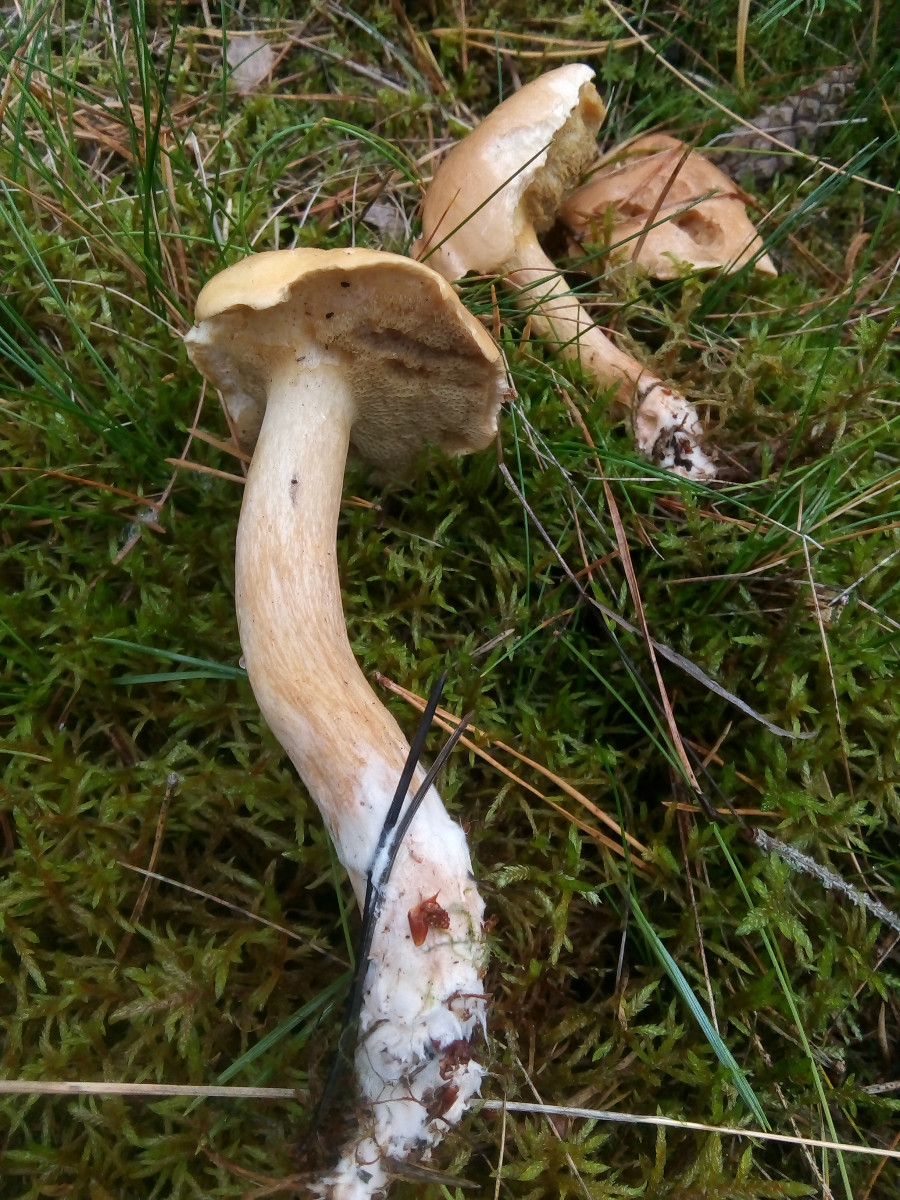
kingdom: Fungi
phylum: Basidiomycota
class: Agaricomycetes
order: Boletales
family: Suillaceae
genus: Suillus
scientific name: Suillus bovinus
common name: grovporet slimrørhat
